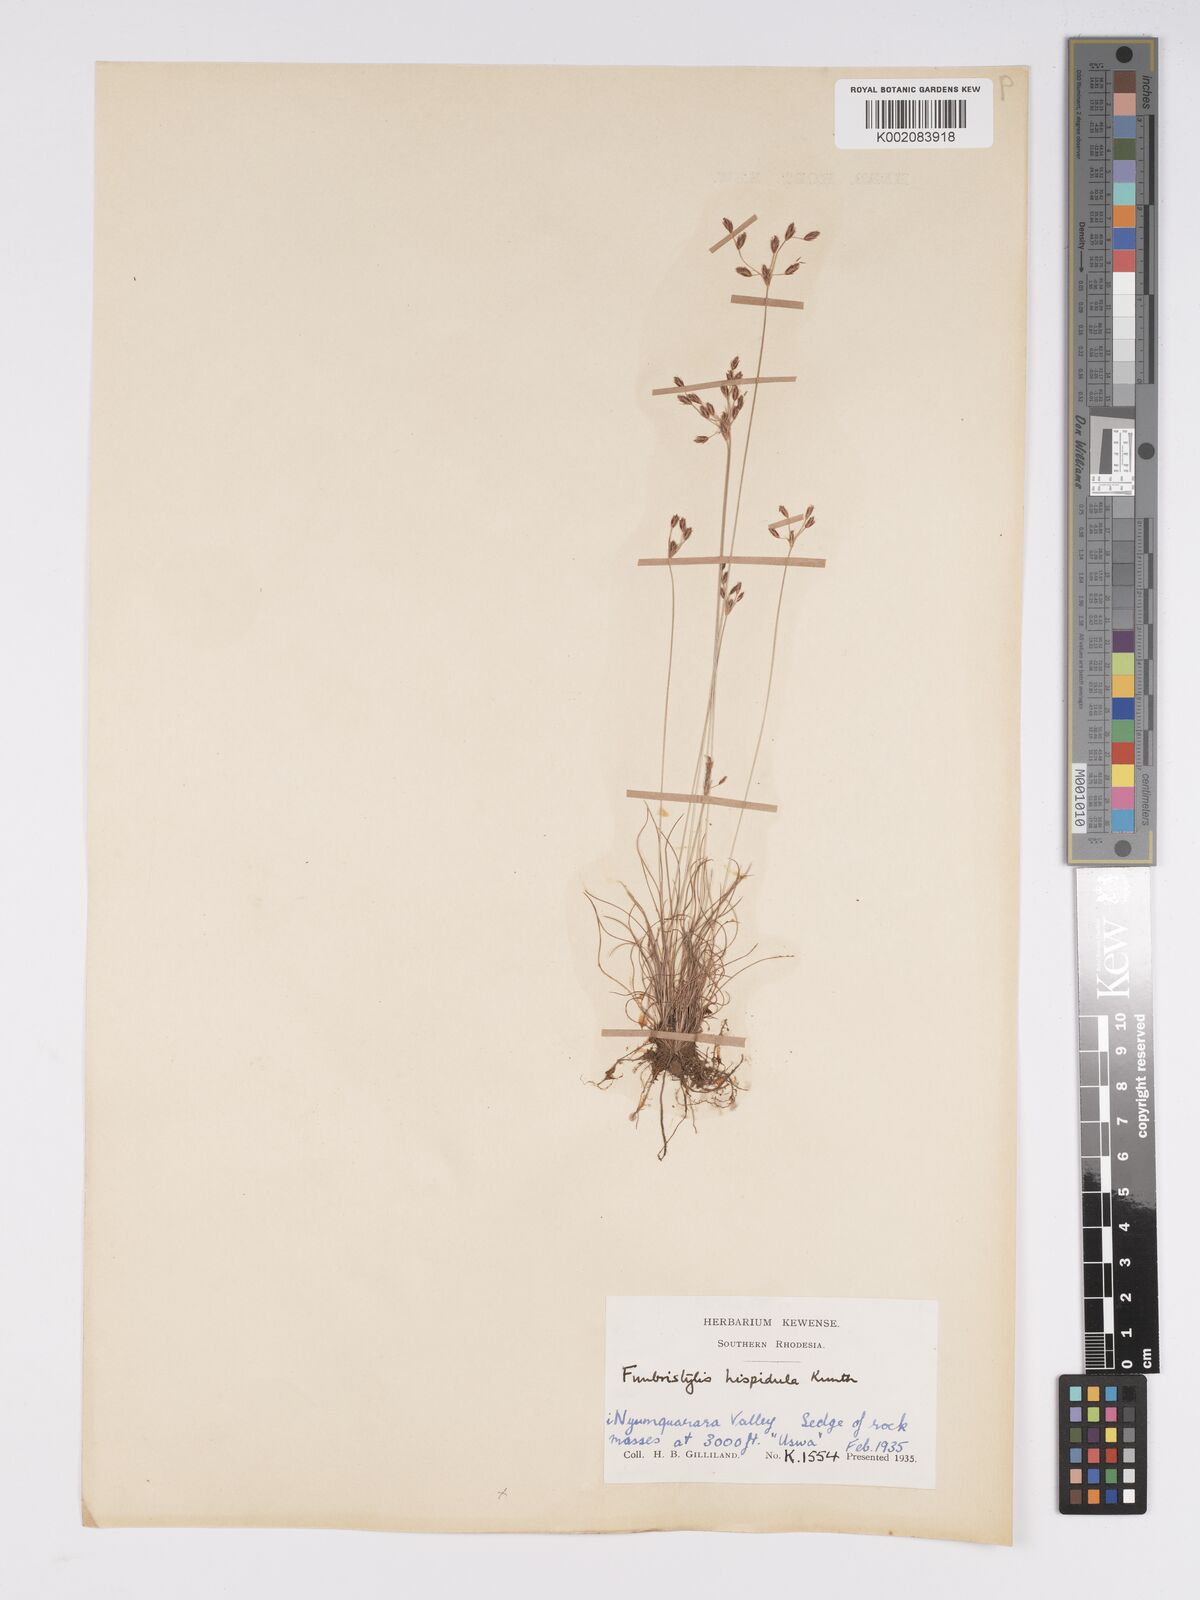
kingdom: Plantae
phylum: Tracheophyta
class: Liliopsida
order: Poales
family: Cyperaceae
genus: Bulbostylis
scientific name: Bulbostylis hispidula
